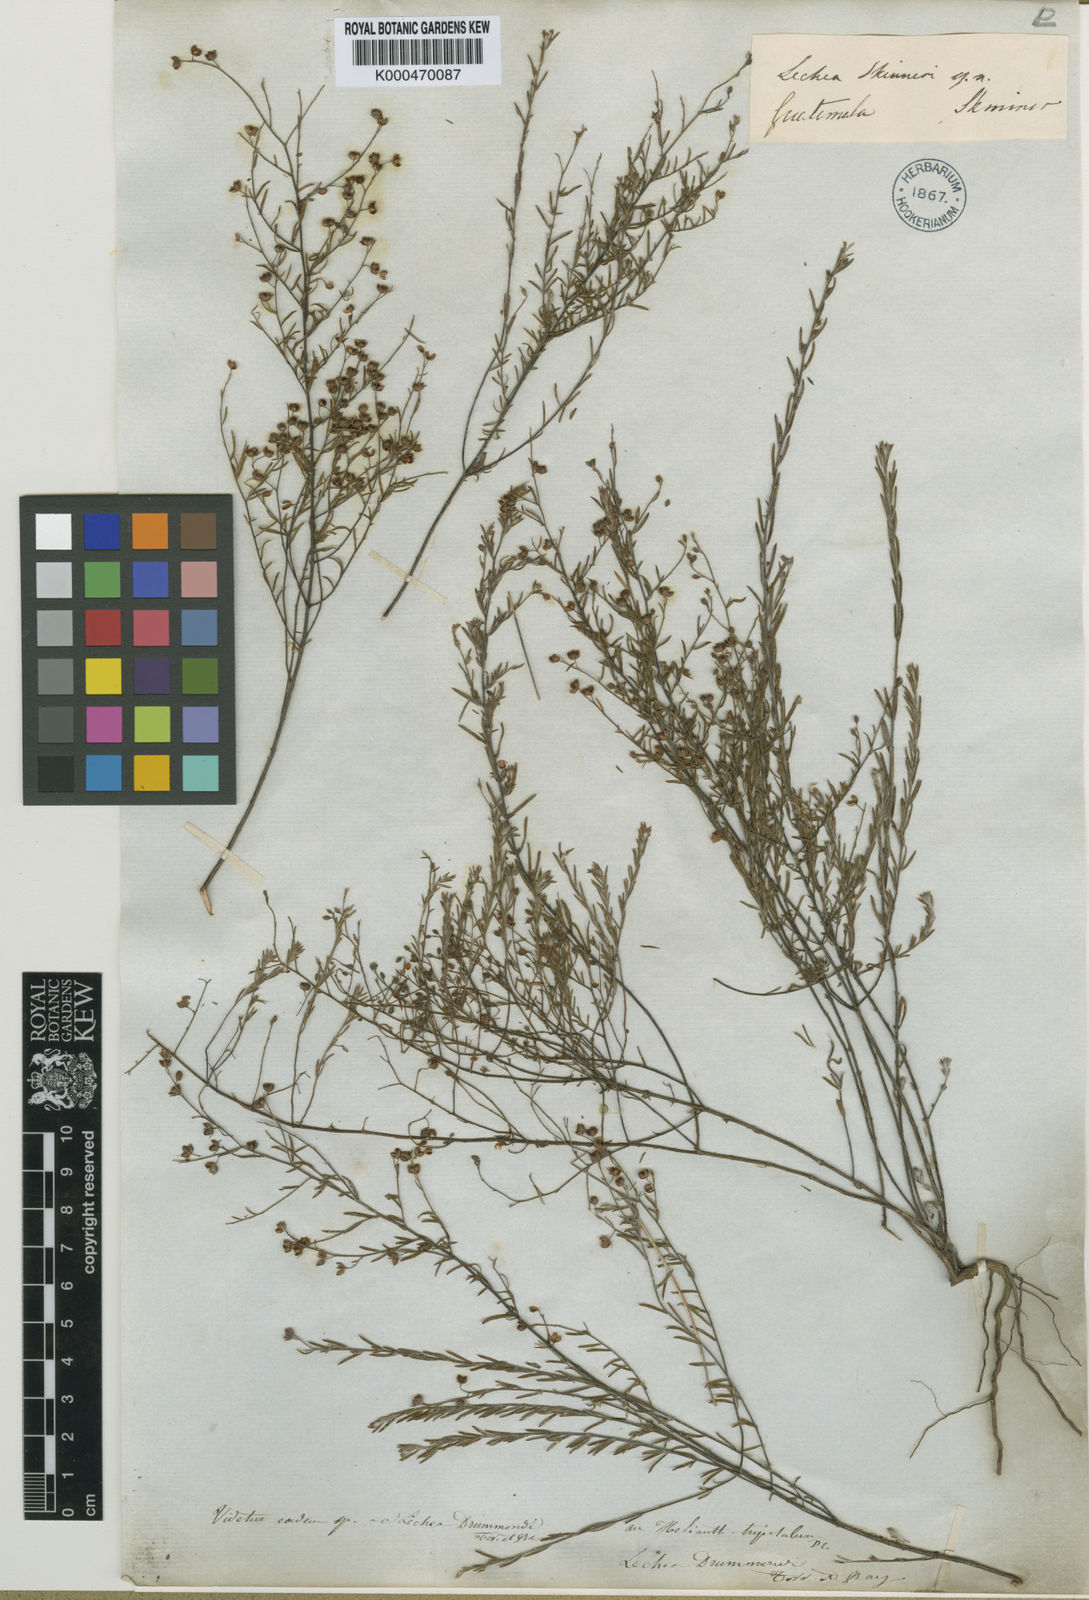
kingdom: Plantae
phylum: Tracheophyta
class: Magnoliopsida
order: Malvales
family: Cistaceae
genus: Lechea
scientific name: Lechea
